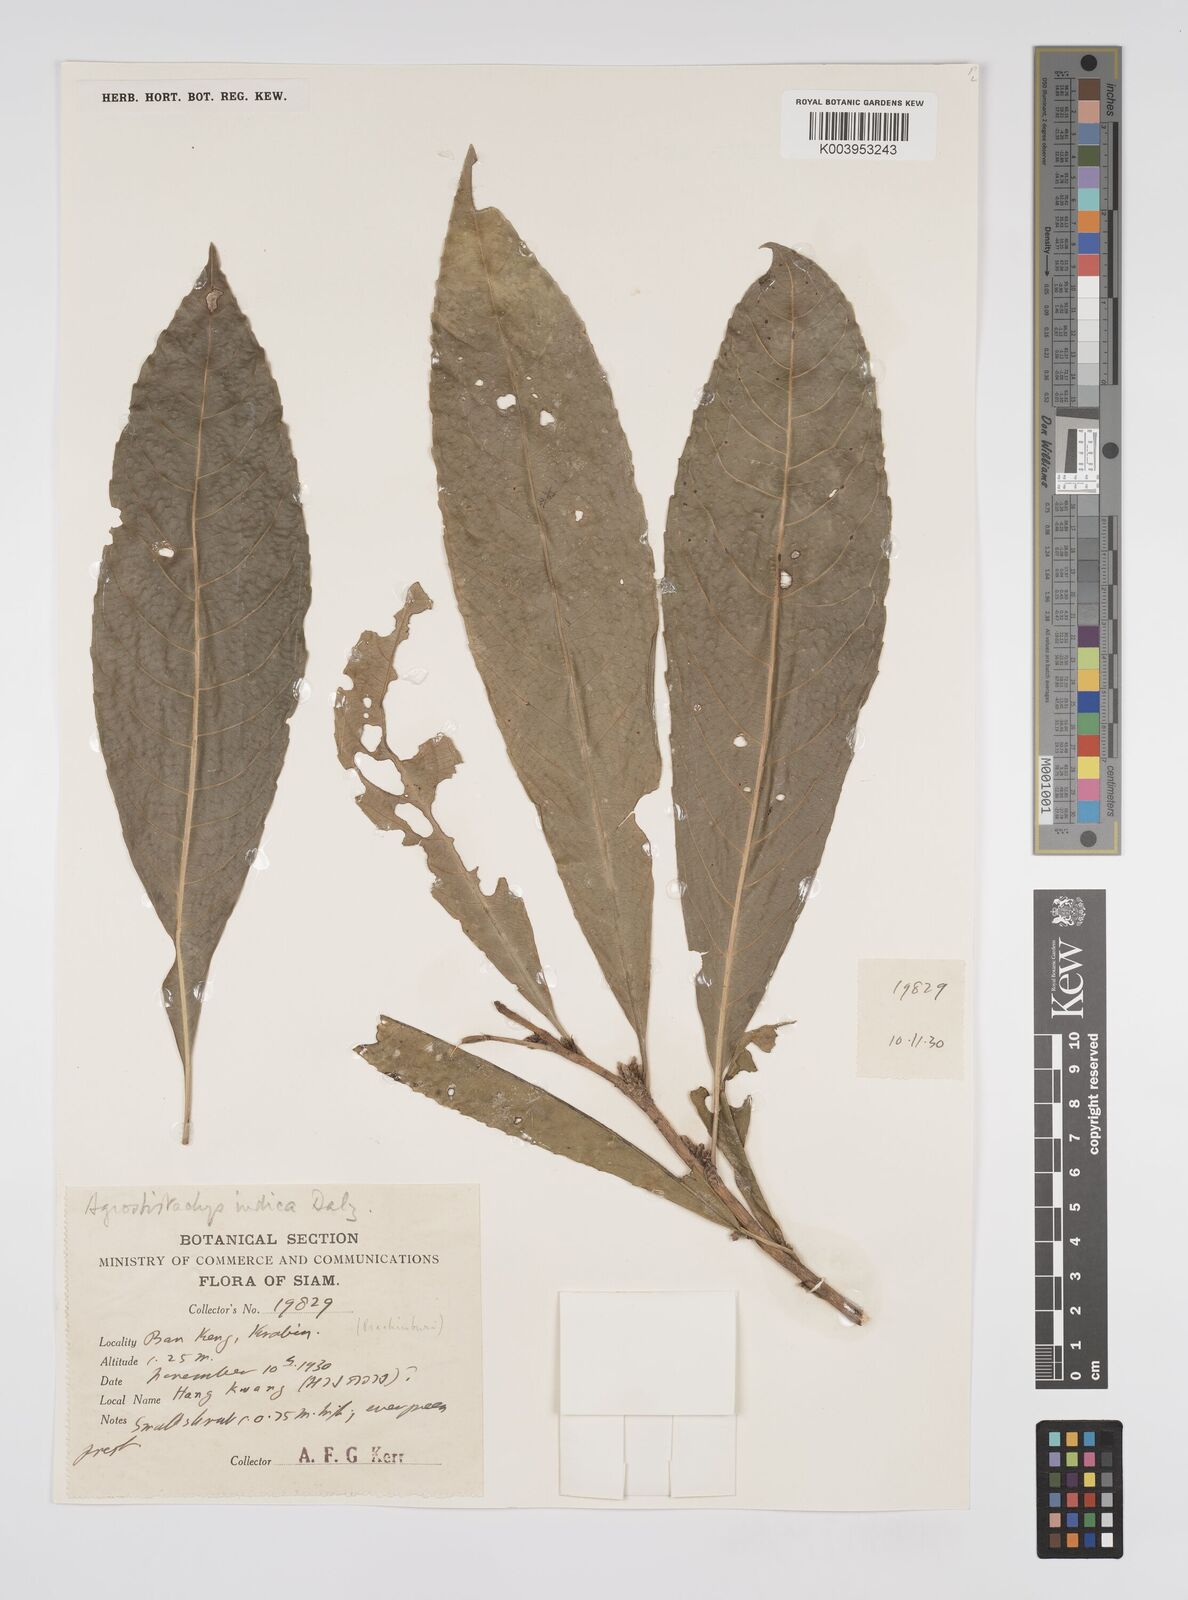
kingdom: Plantae
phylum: Tracheophyta
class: Magnoliopsida
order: Malpighiales
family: Euphorbiaceae
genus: Agrostistachys
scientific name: Agrostistachys indica
